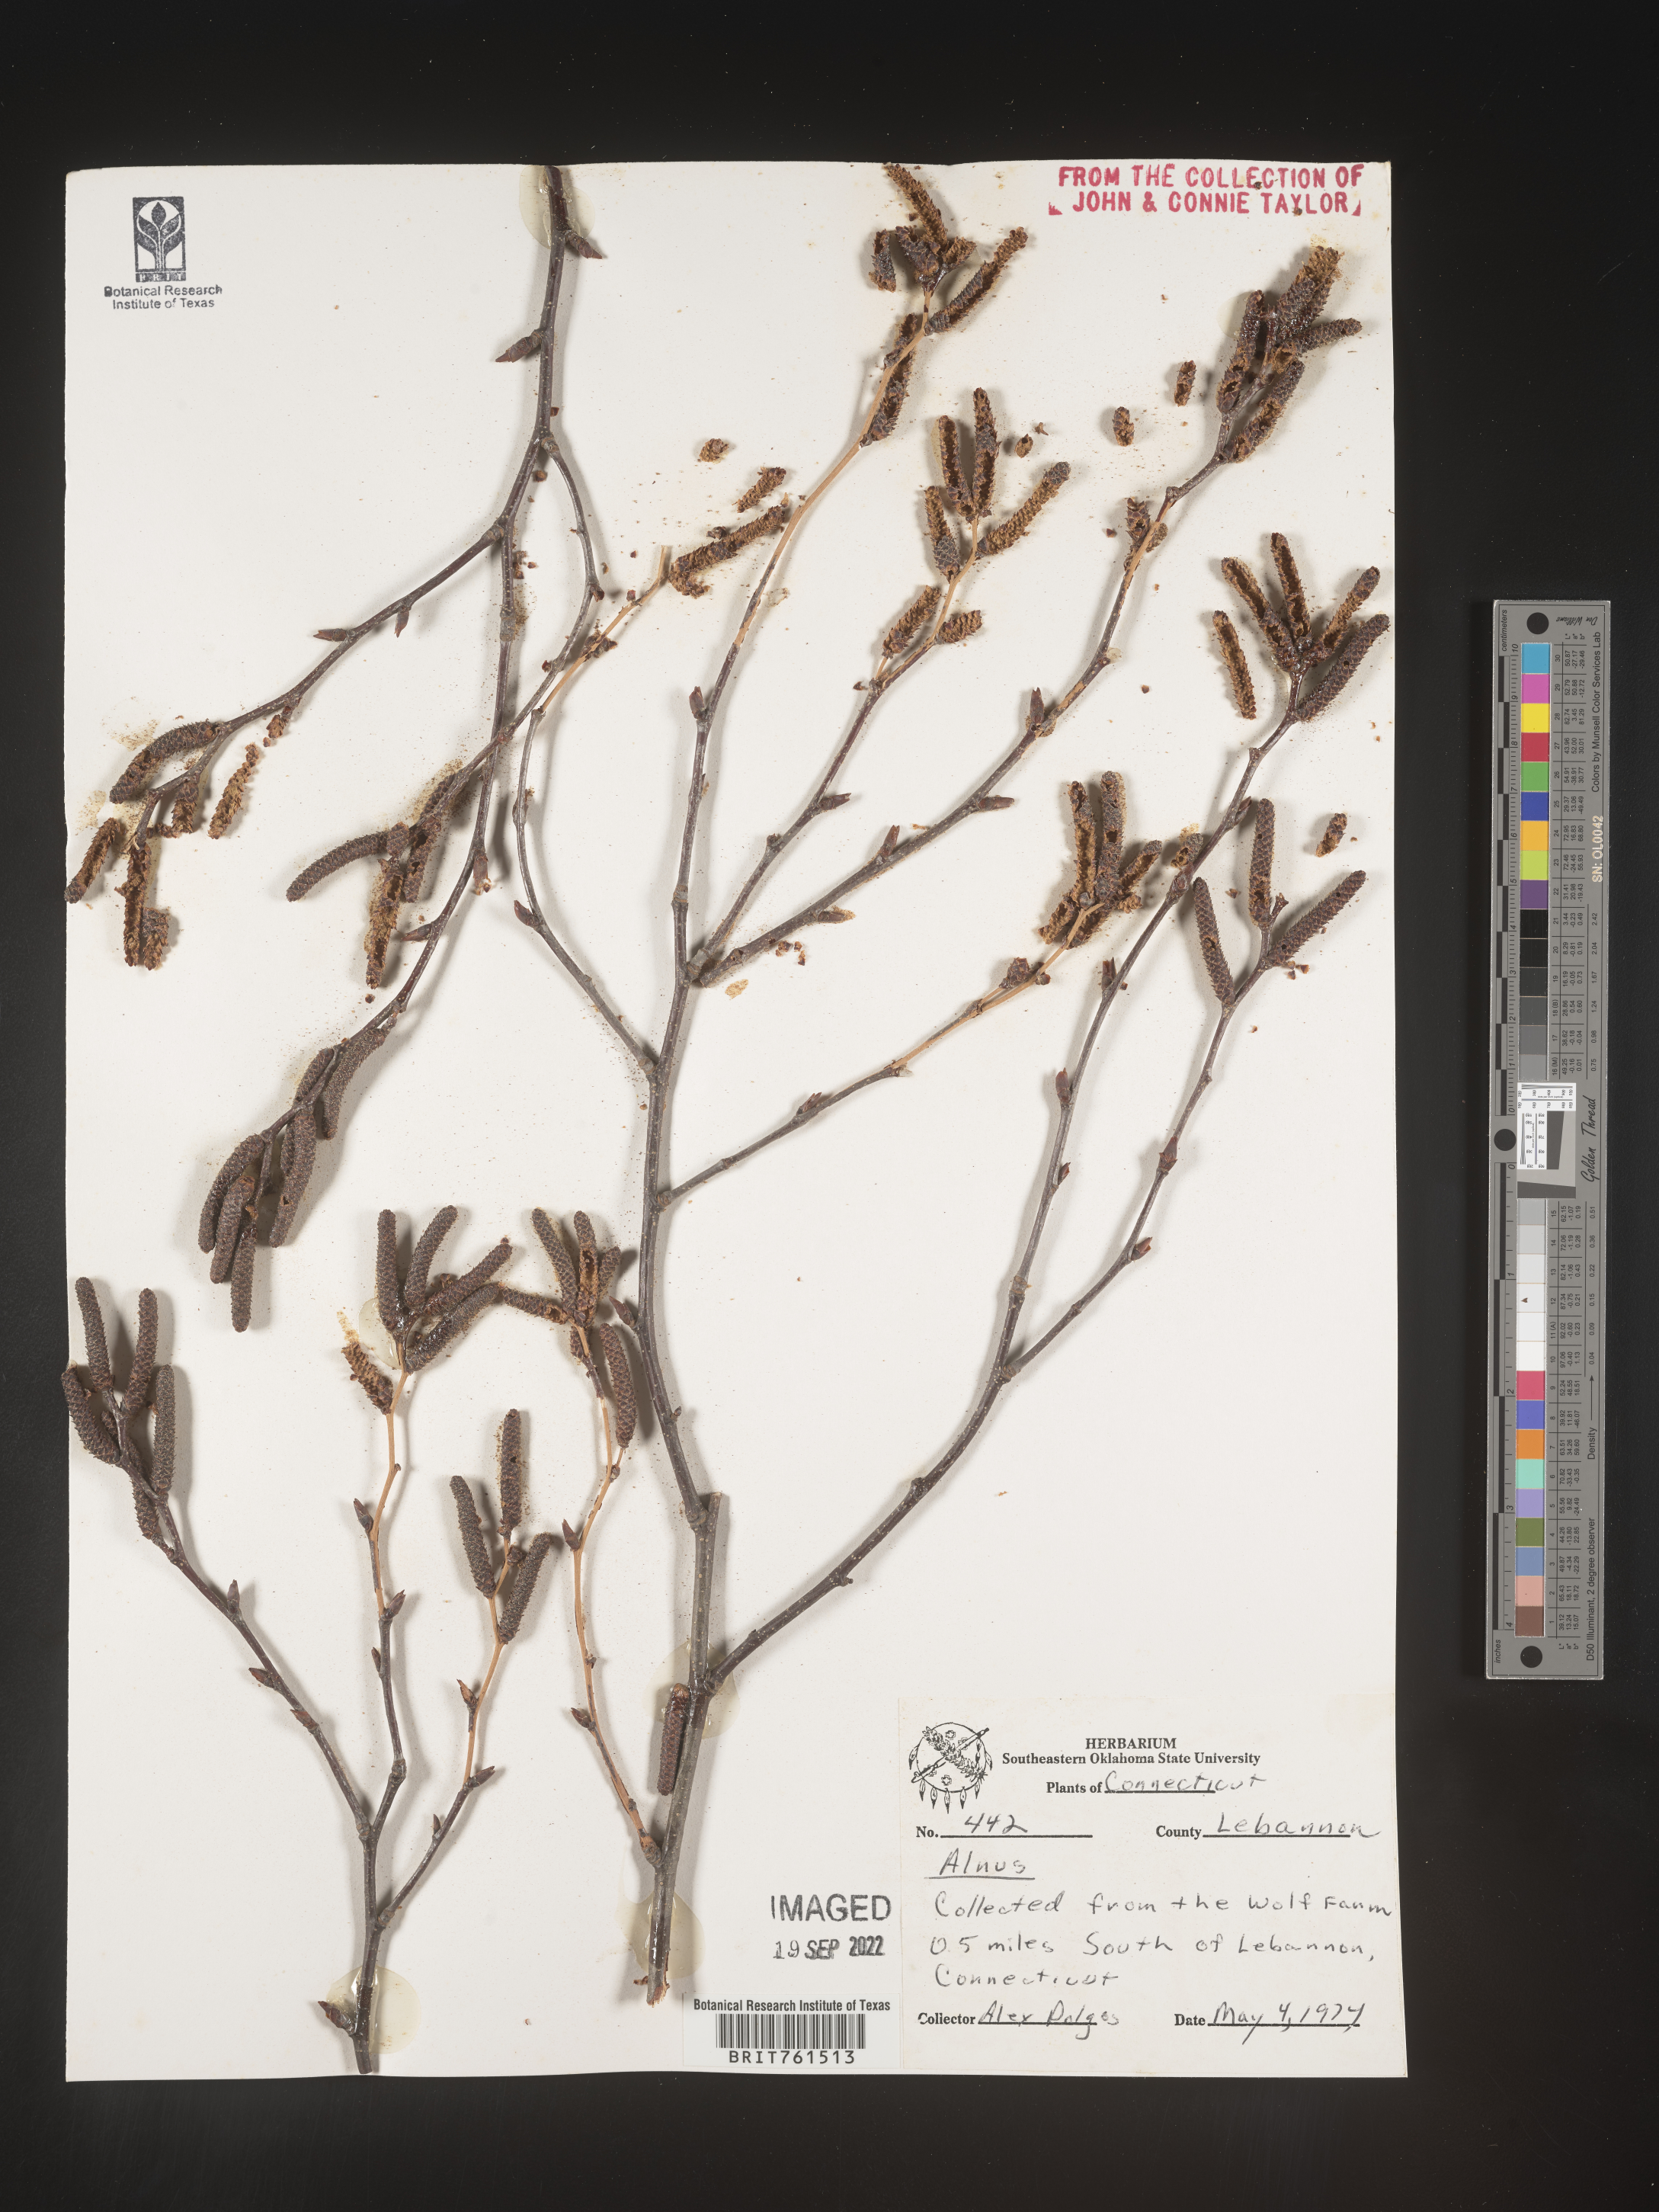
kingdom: Plantae
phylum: Tracheophyta
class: Magnoliopsida
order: Fagales
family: Betulaceae
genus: Alnus
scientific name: Alnus
